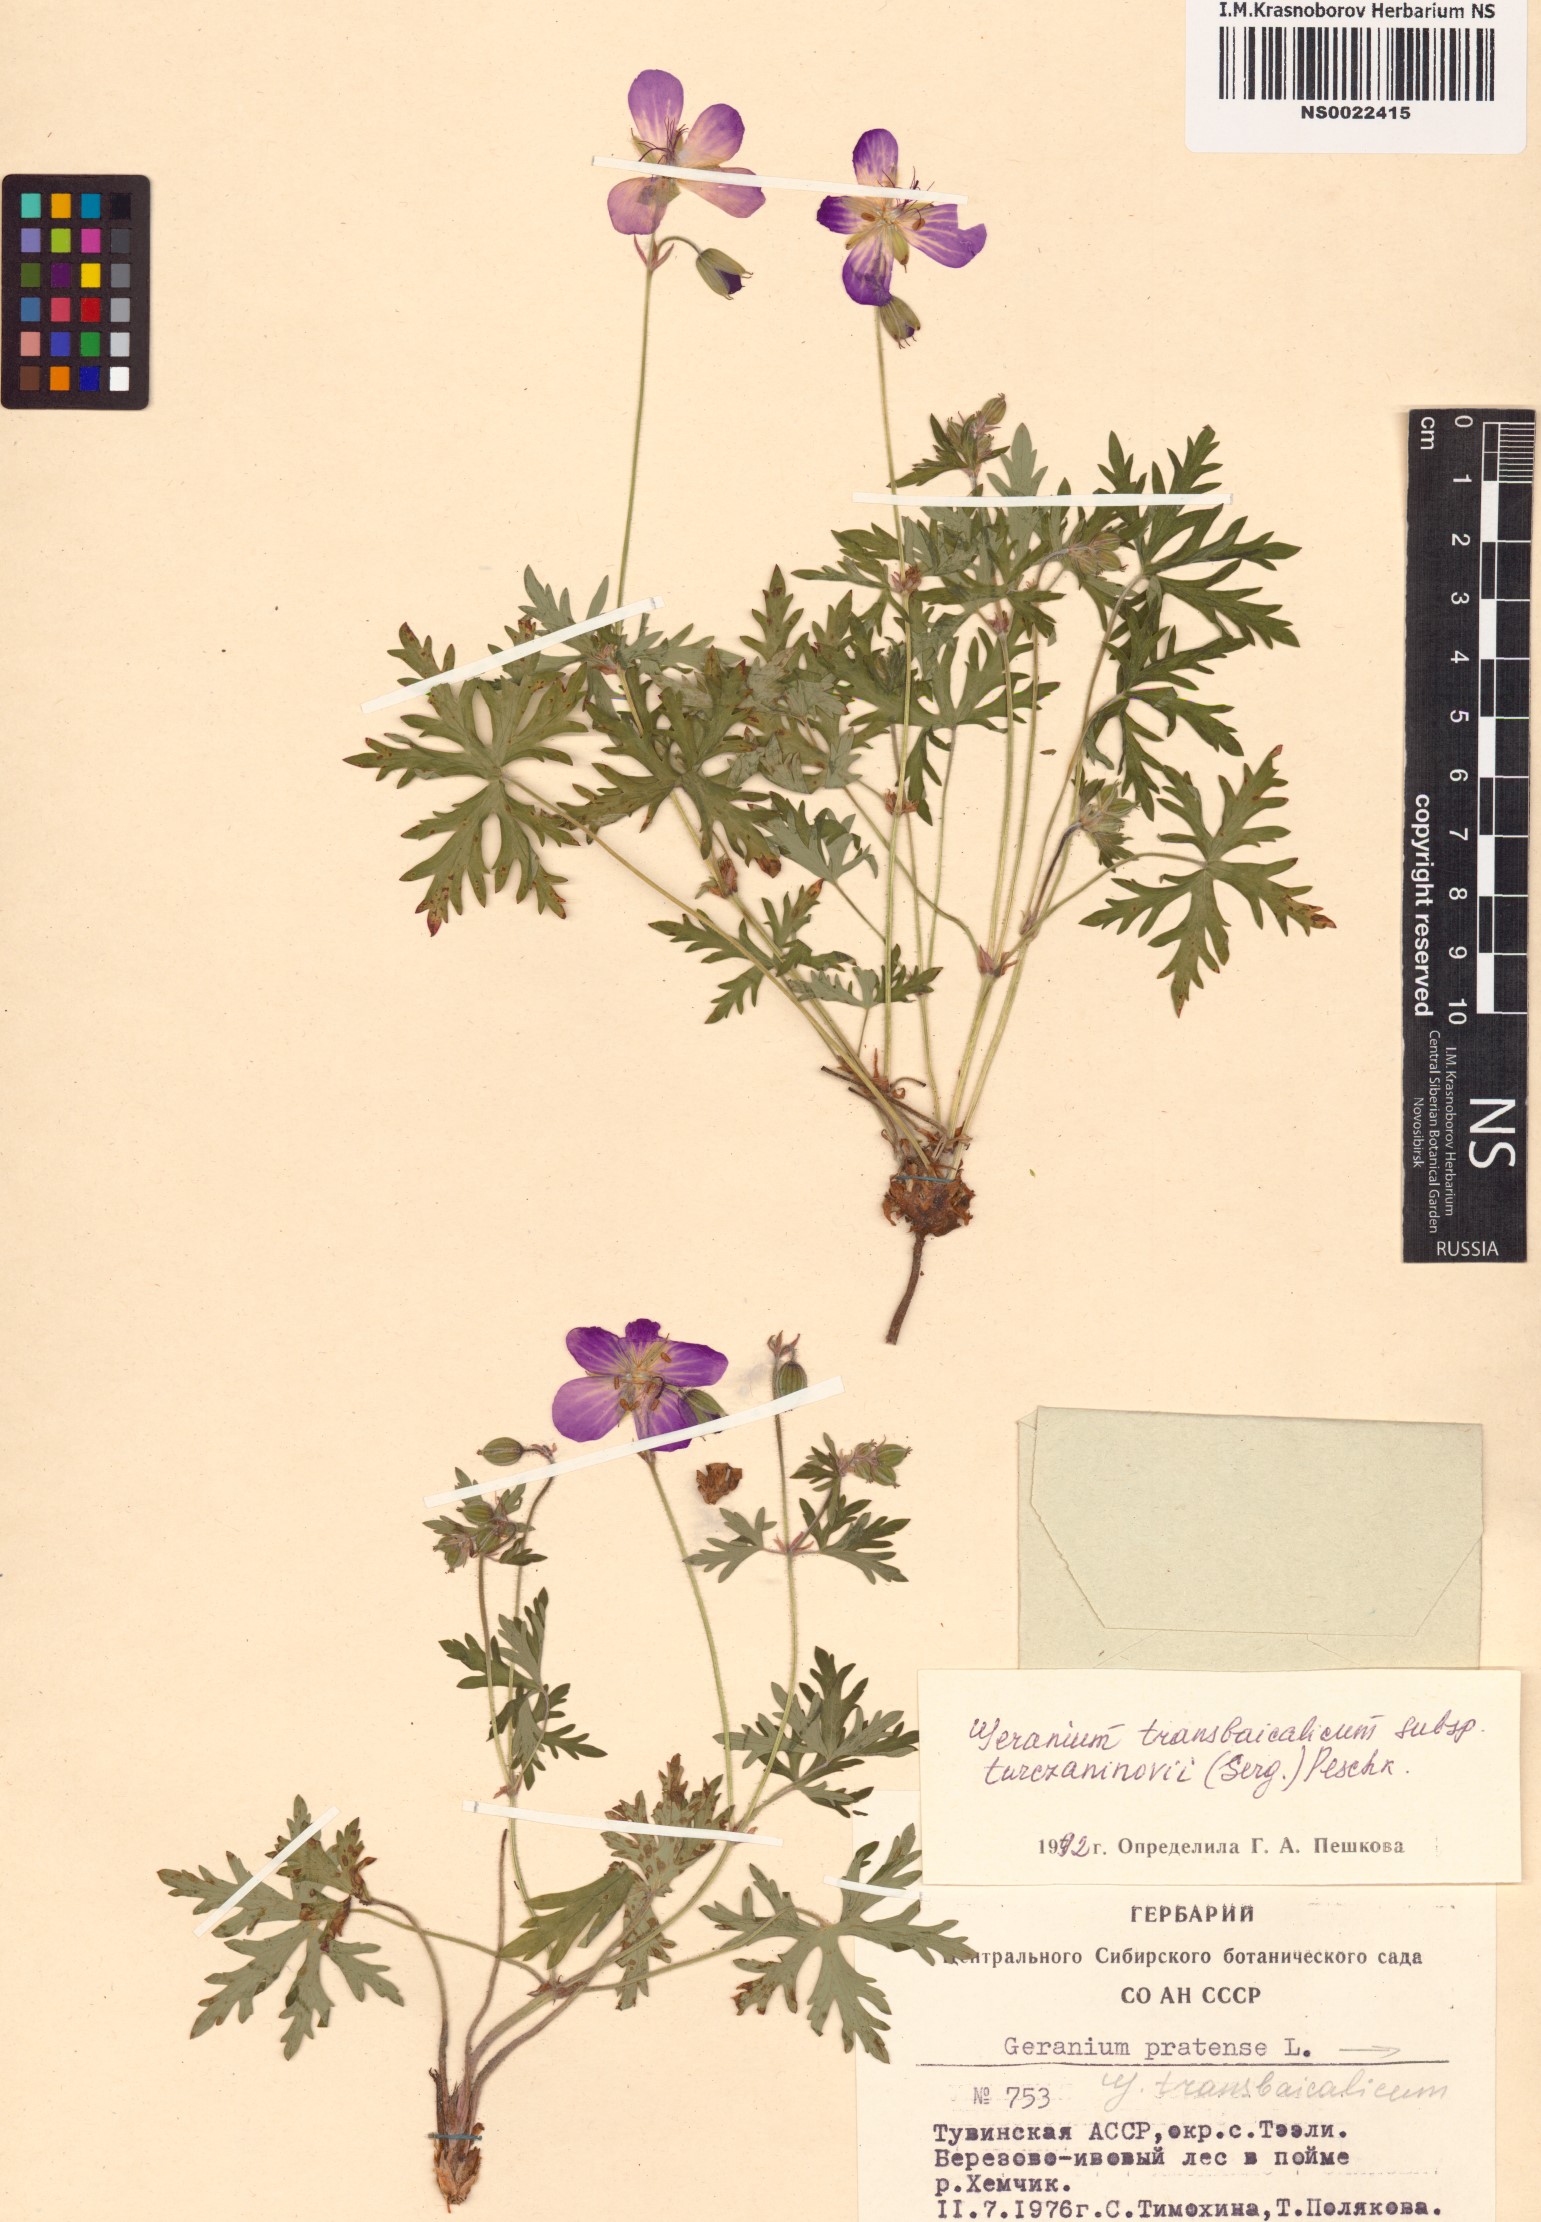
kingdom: Plantae
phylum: Tracheophyta
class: Magnoliopsida
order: Geraniales
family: Geraniaceae
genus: Geranium
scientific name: Geranium pratense
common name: Meadow crane's-bill
